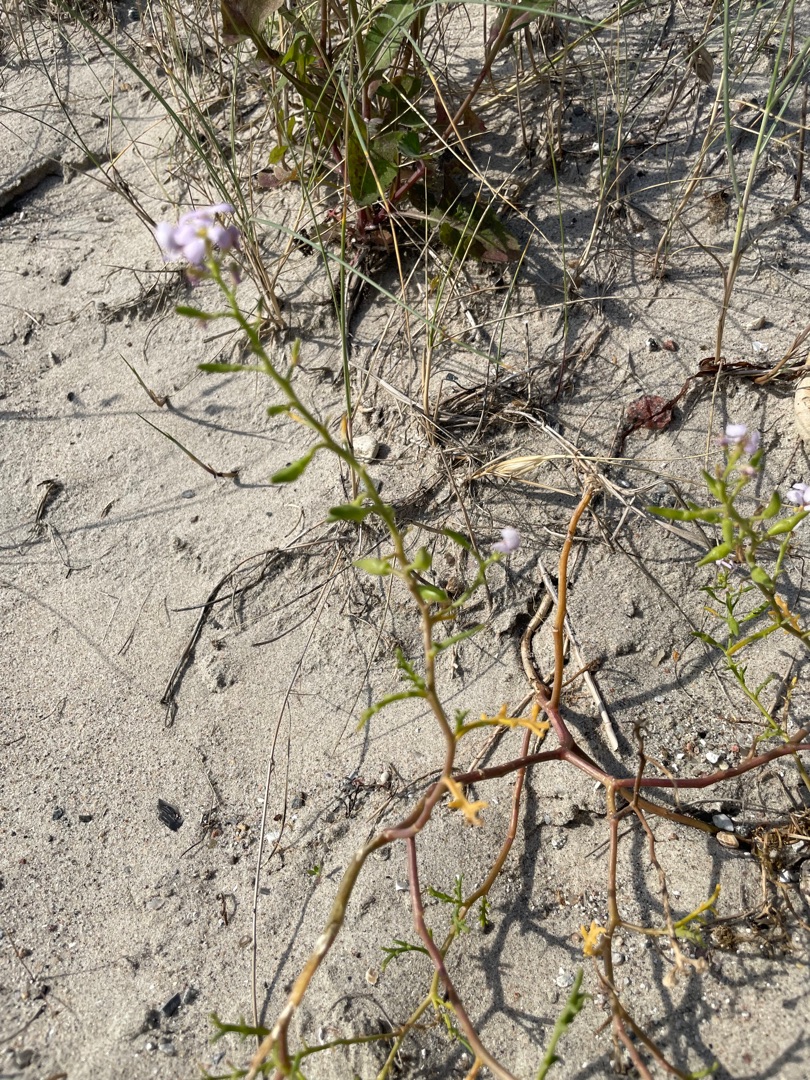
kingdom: Plantae
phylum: Tracheophyta
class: Magnoliopsida
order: Brassicales
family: Brassicaceae
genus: Cakile
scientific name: Cakile maritima
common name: Strandsennep
